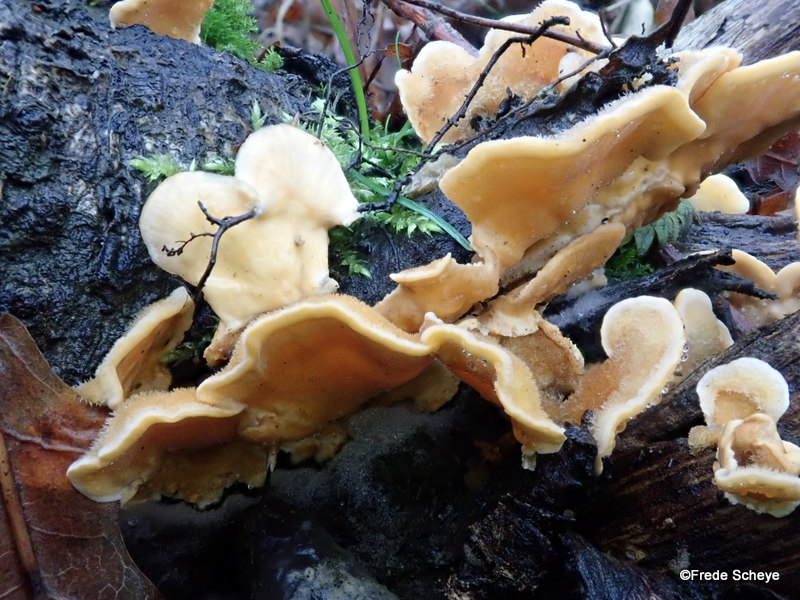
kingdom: Fungi
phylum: Basidiomycota
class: Agaricomycetes
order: Russulales
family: Stereaceae
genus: Stereum
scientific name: Stereum hirsutum
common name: håret lædersvamp
